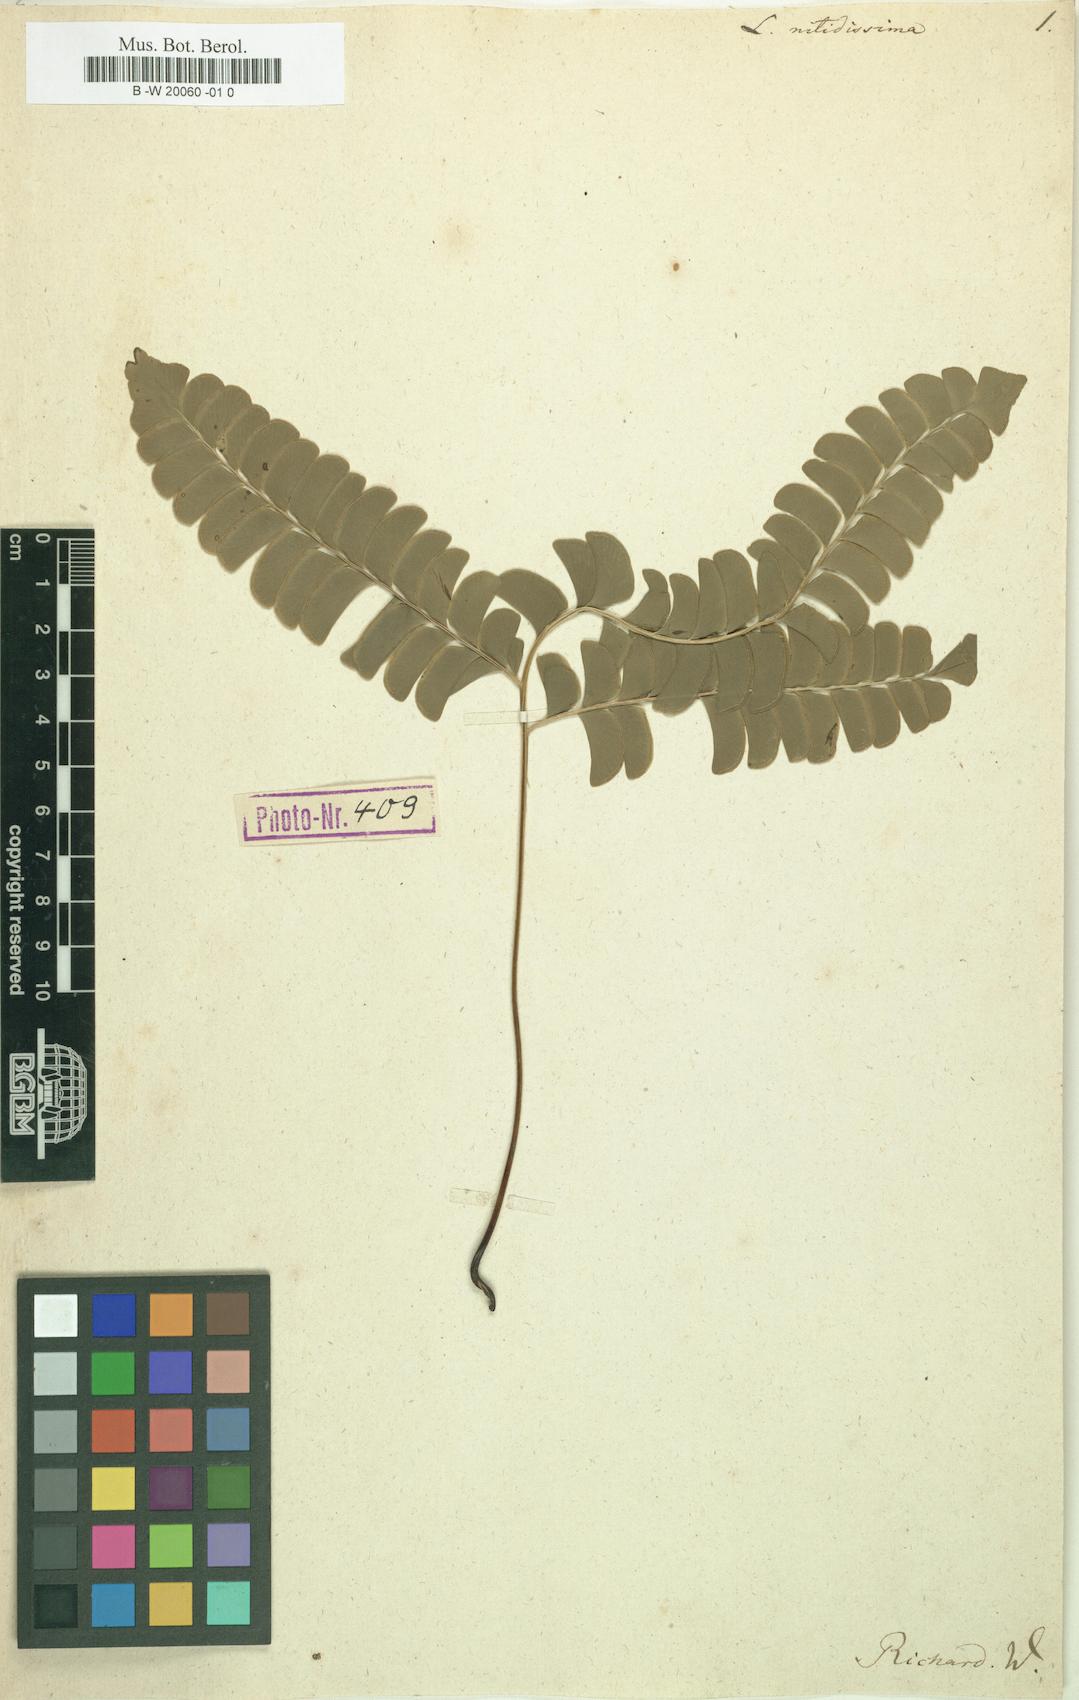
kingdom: Plantae
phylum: Tracheophyta
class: Polypodiopsida
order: Polypodiales
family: Lindsaeaceae
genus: Lindsaea
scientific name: Lindsaea lancea
